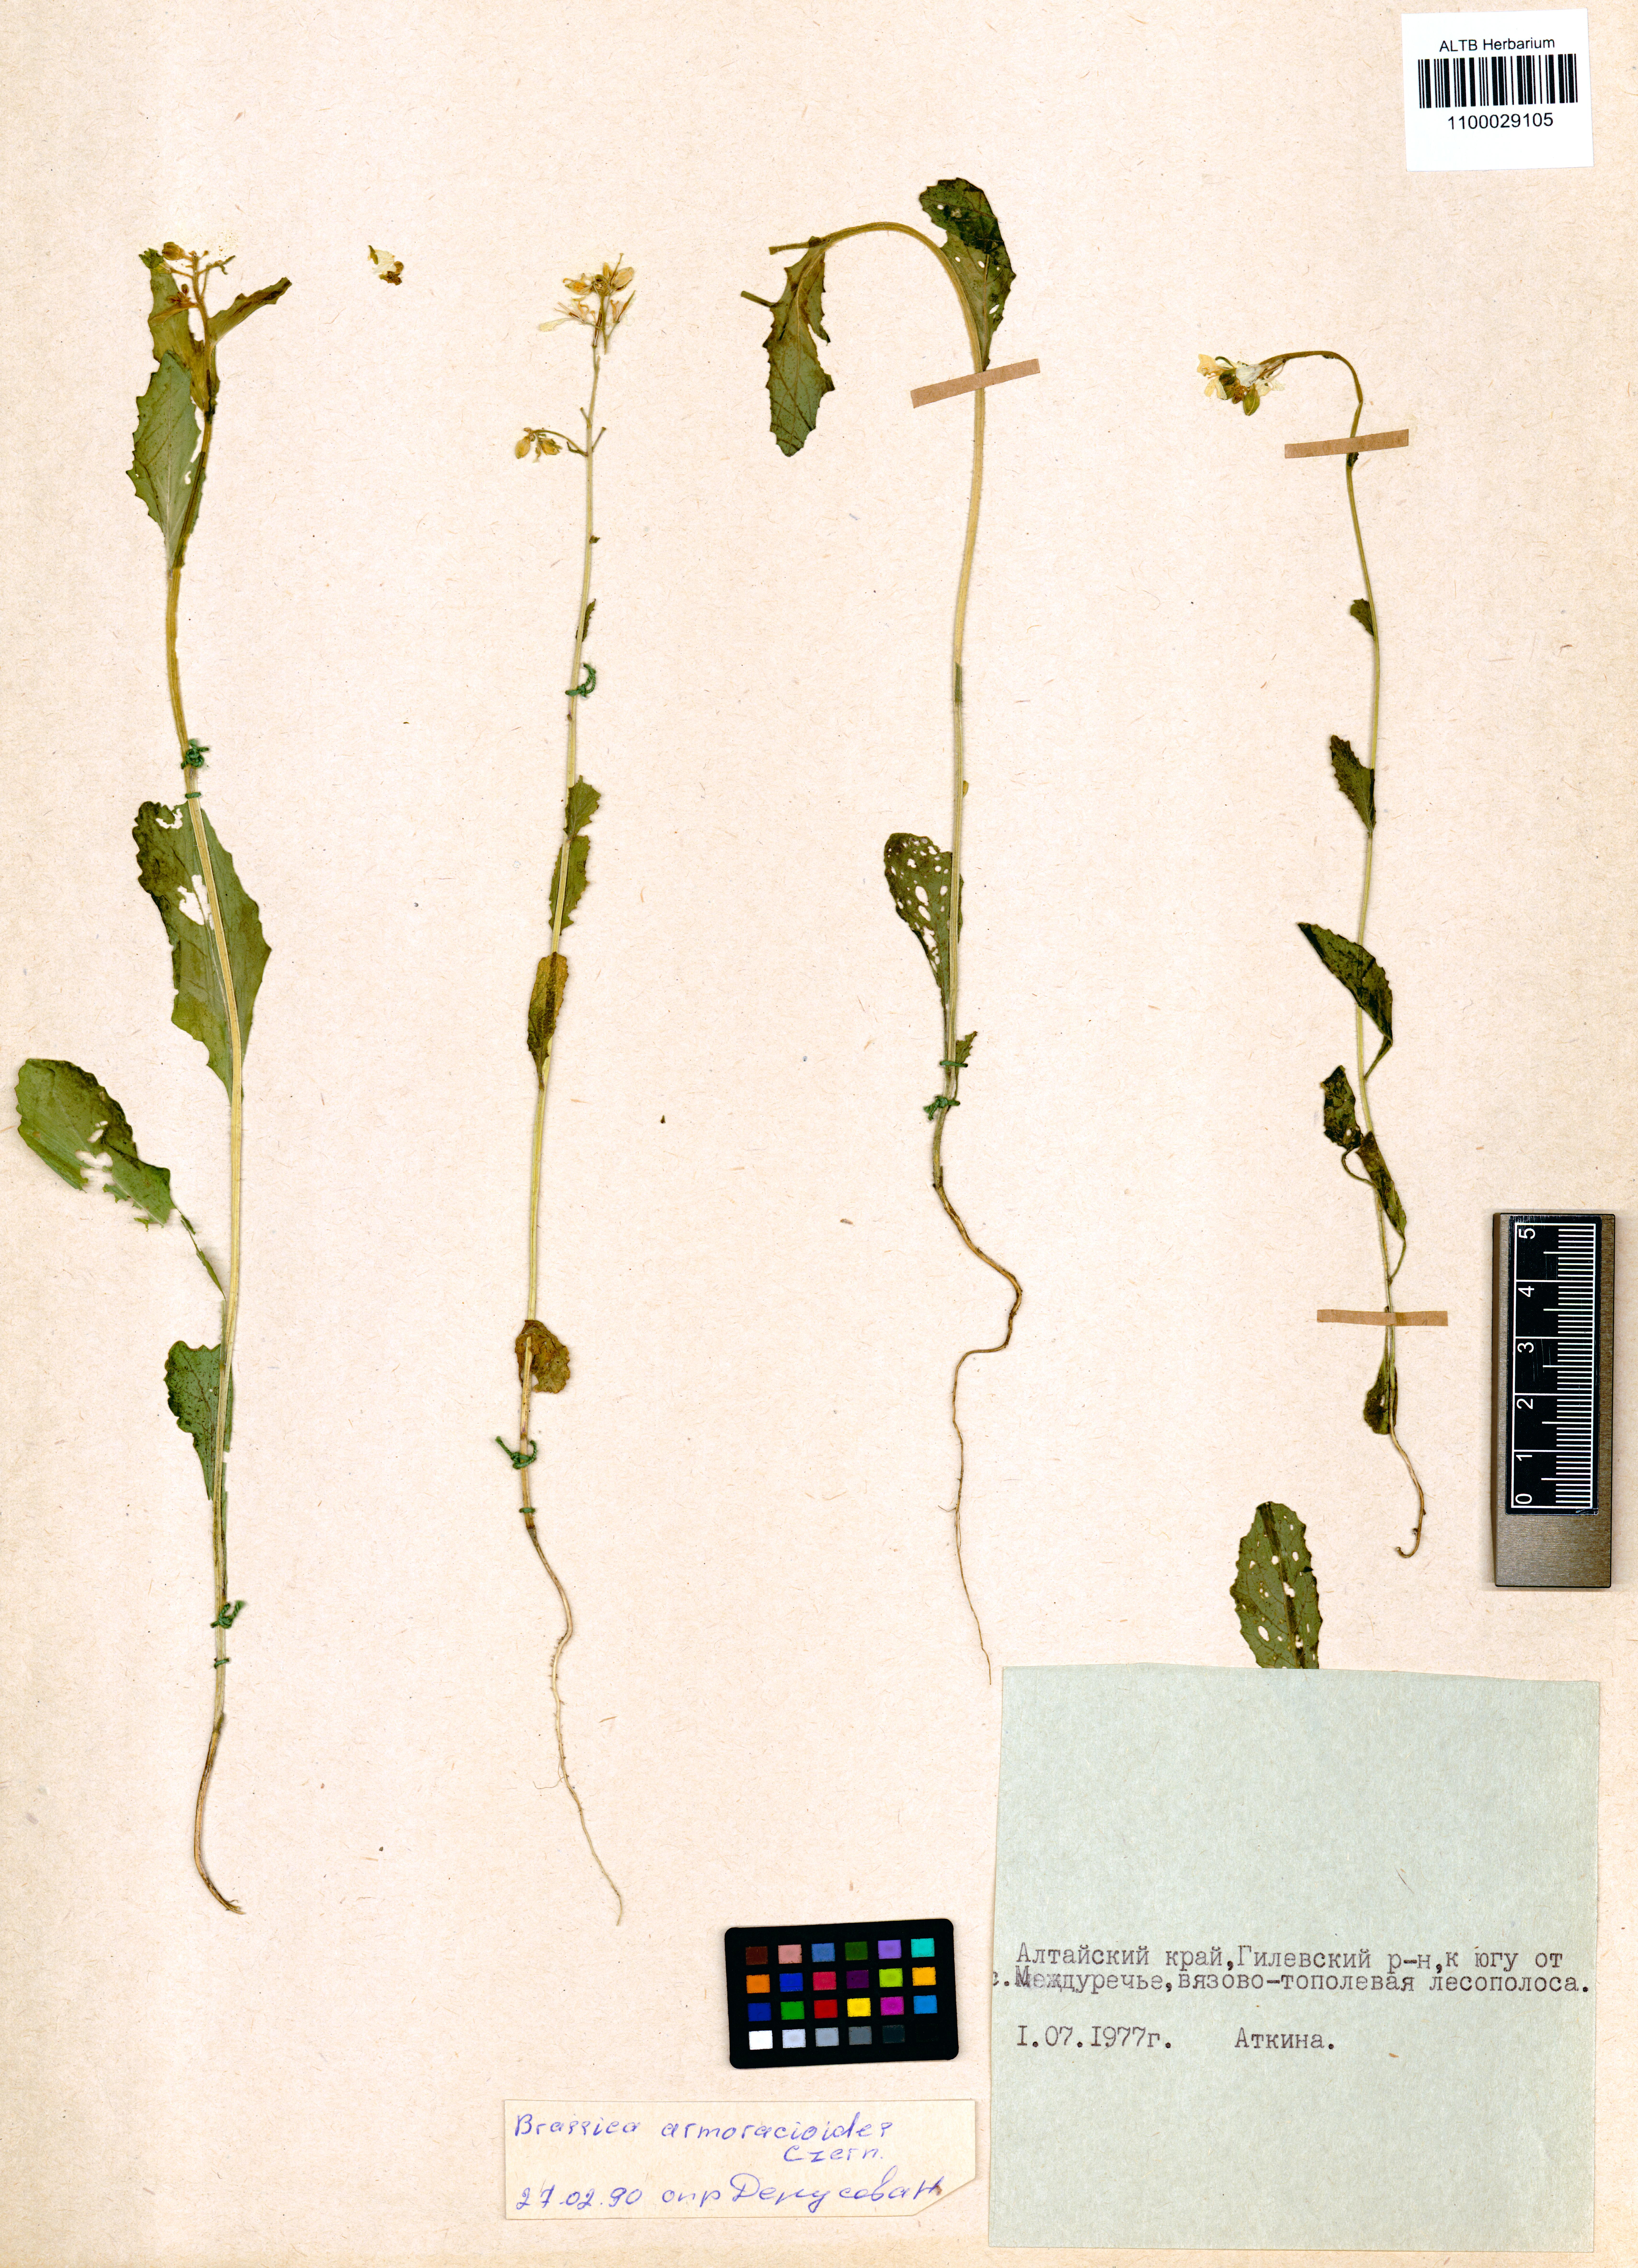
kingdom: Plantae
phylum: Tracheophyta
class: Magnoliopsida
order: Brassicales
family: Brassicaceae
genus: Sinapis
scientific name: Sinapis arvensis
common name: Charlock
